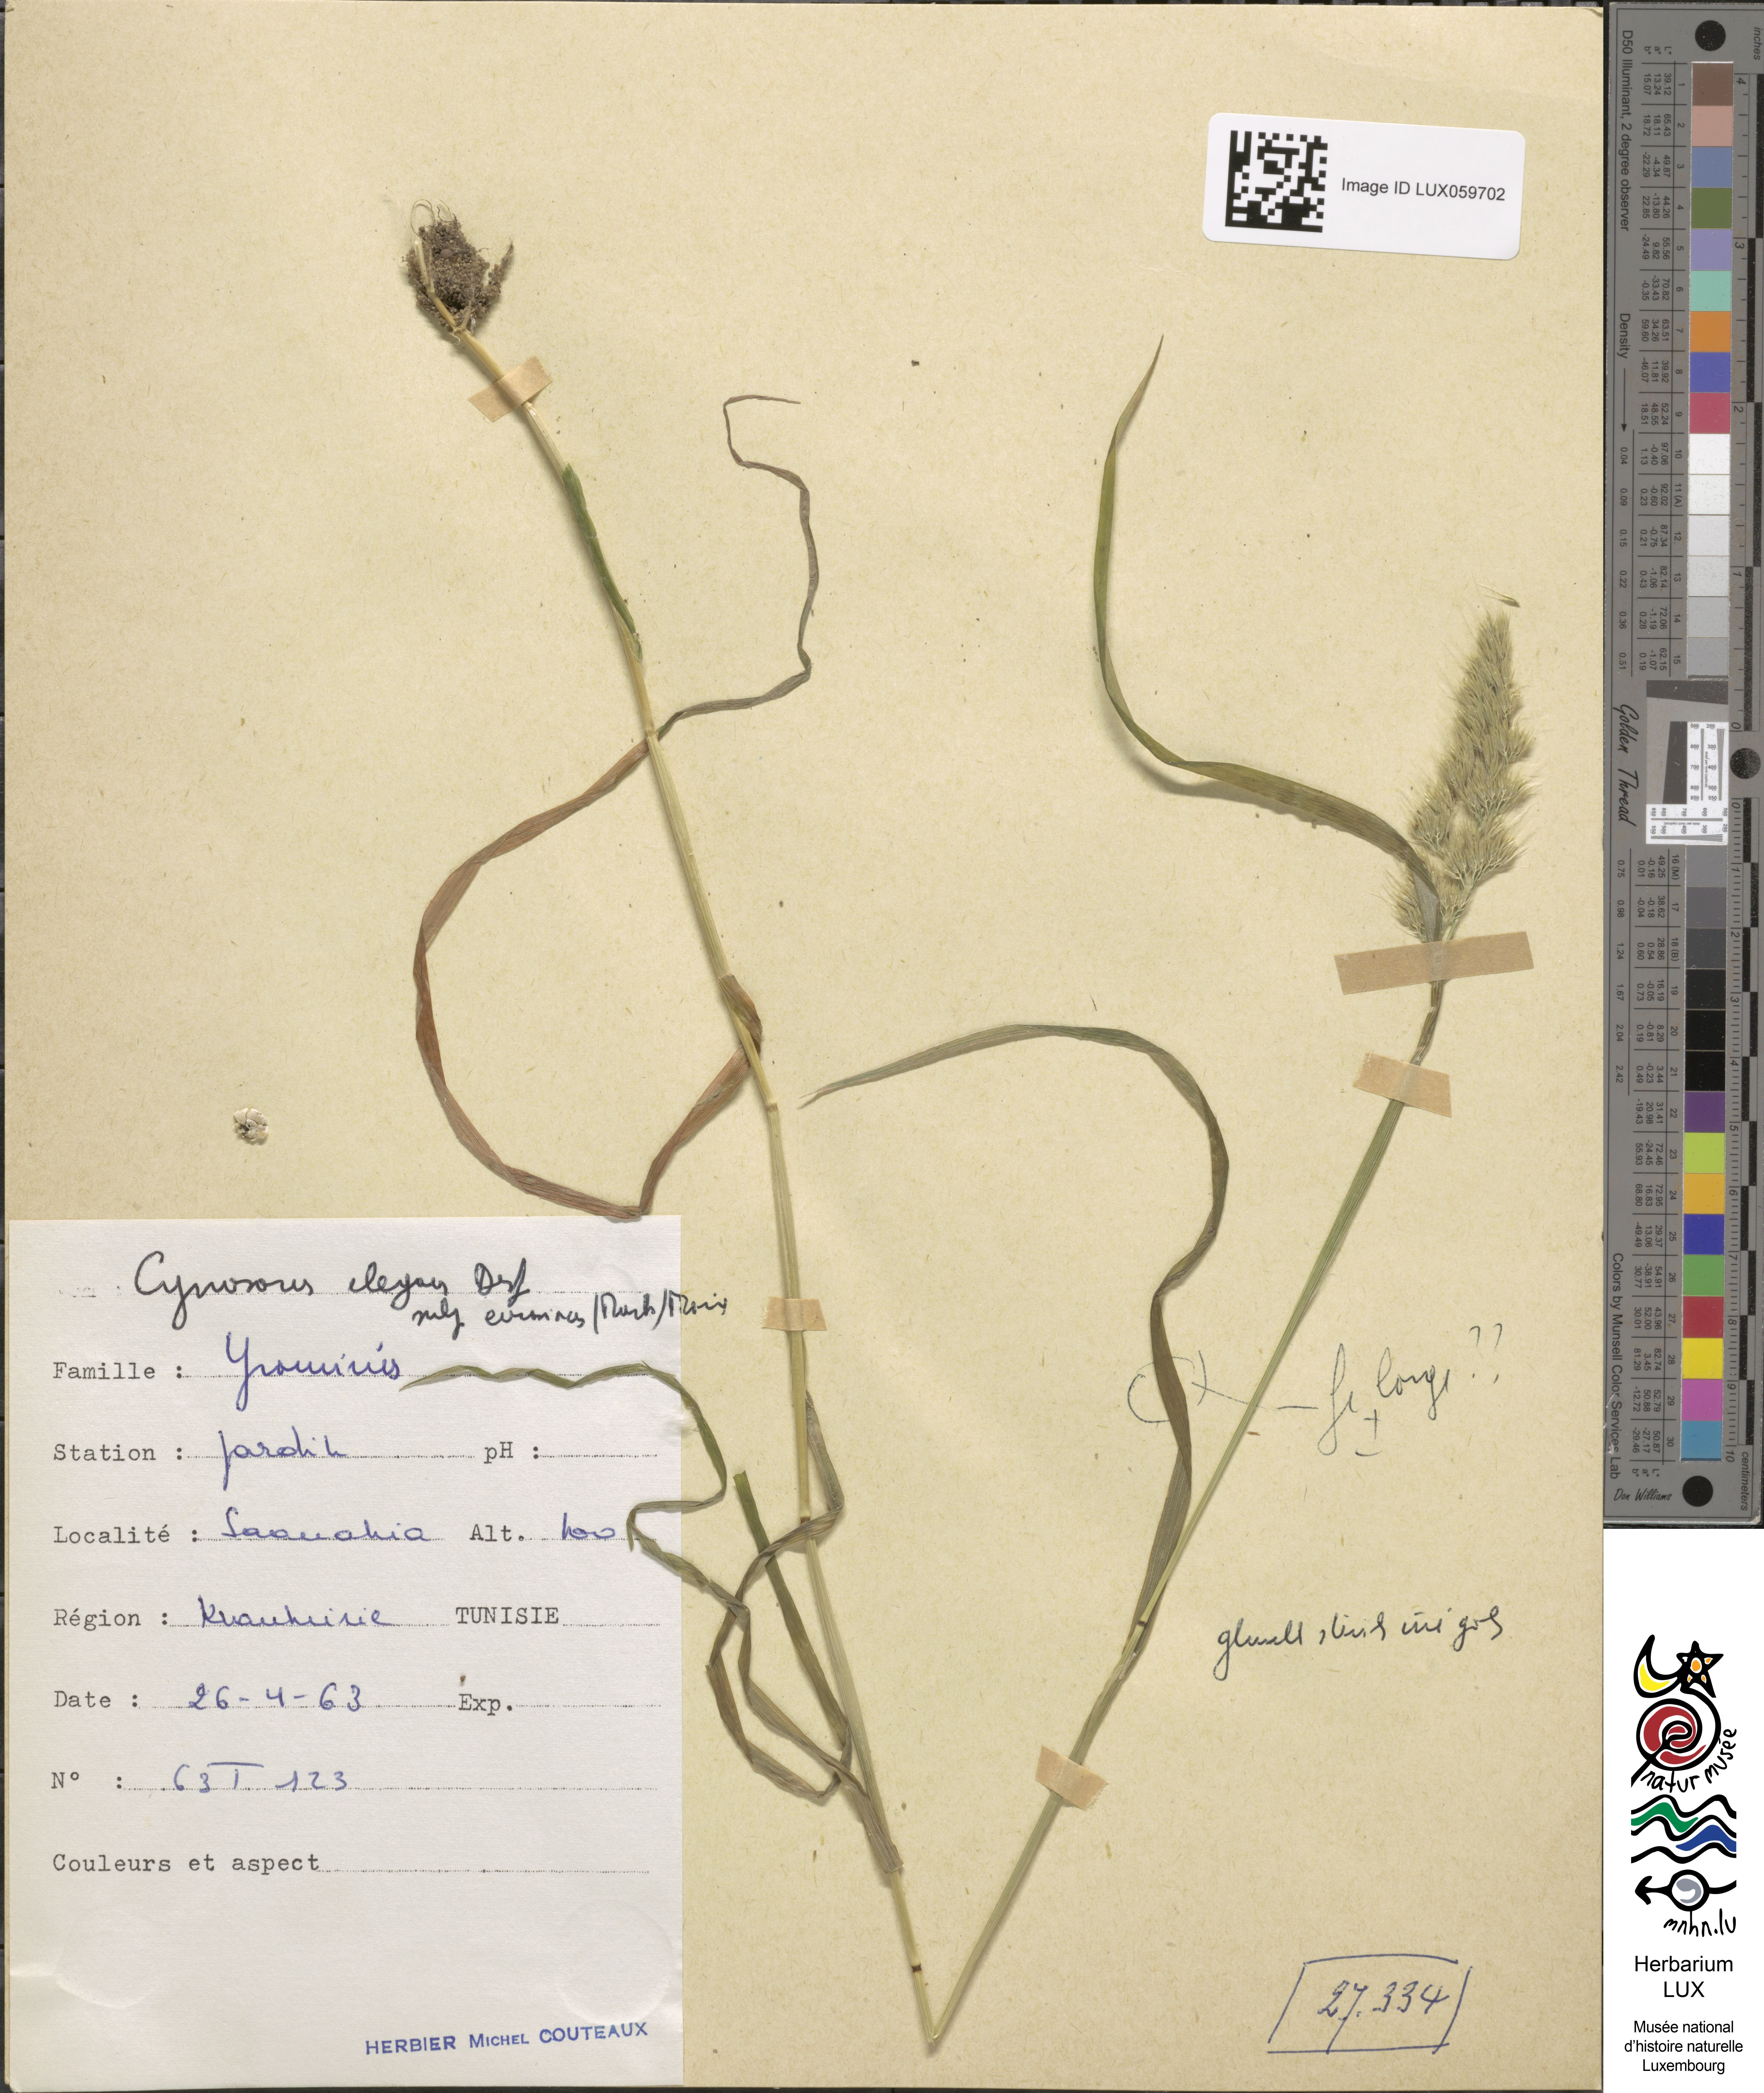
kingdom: Plantae
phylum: Tracheophyta
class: Liliopsida
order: Poales
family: Poaceae
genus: Cynosurus
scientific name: Cynosurus elegans
